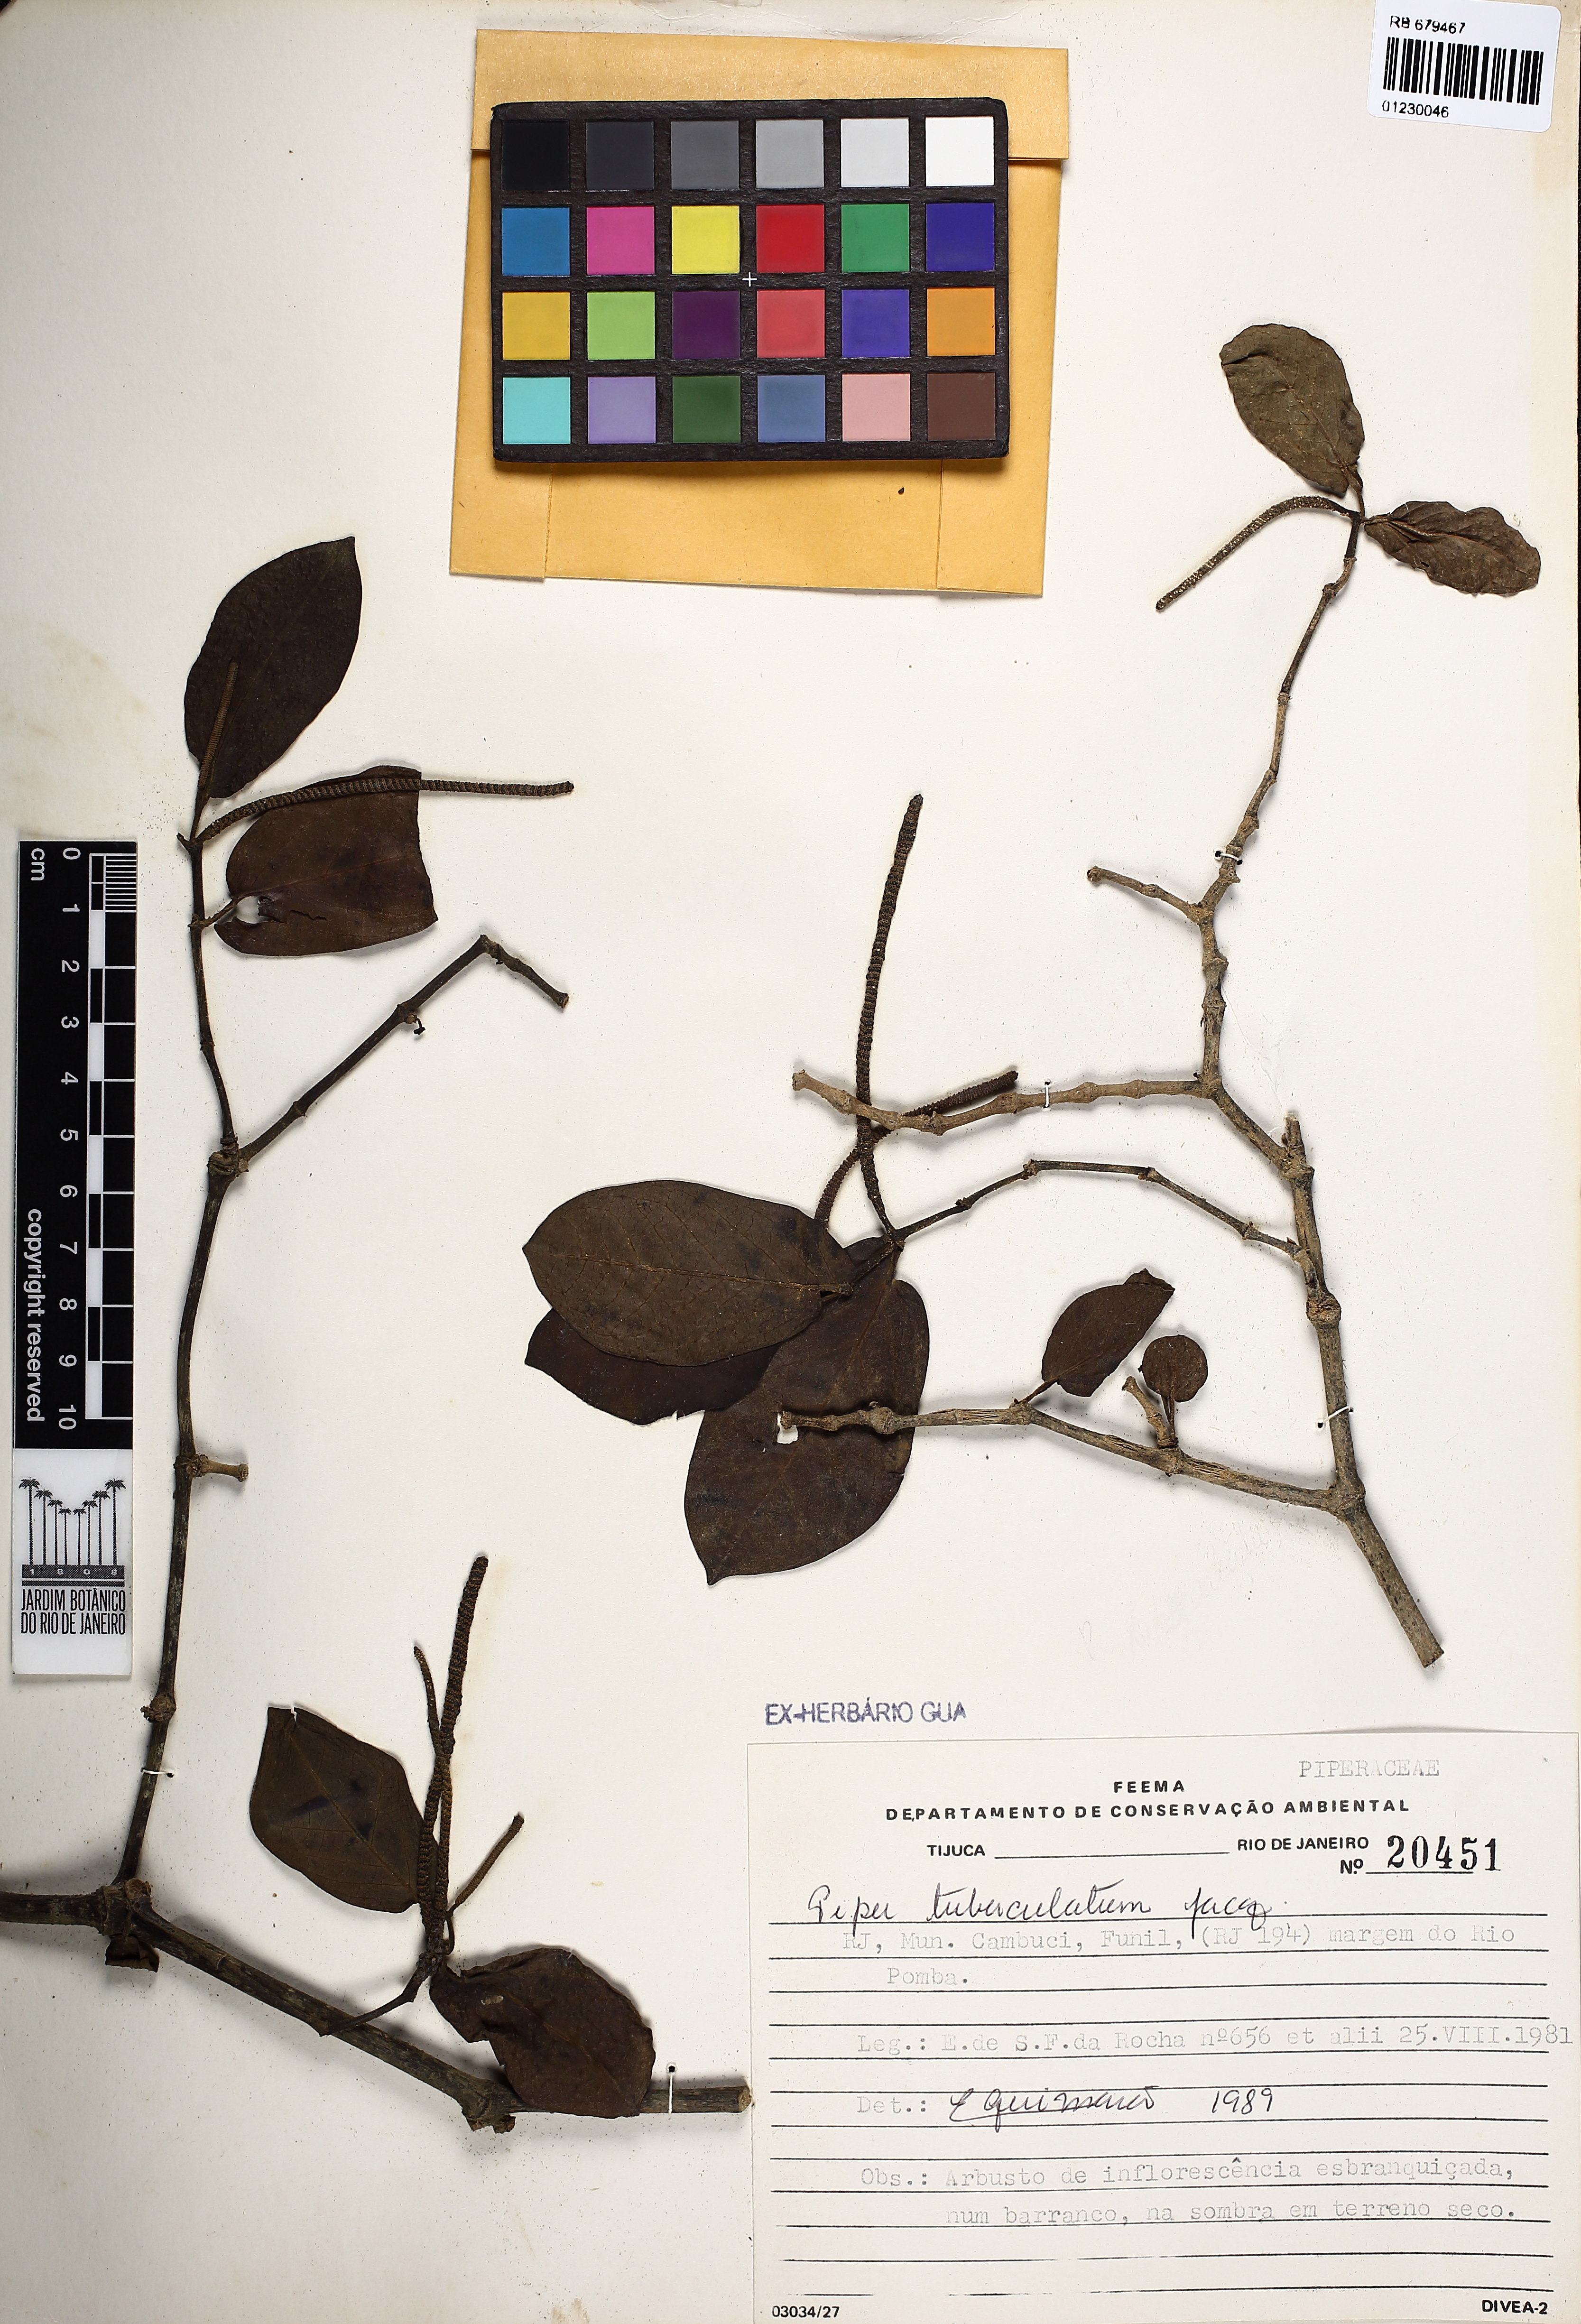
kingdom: Plantae
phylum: Tracheophyta
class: Magnoliopsida
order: Piperales
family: Piperaceae
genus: Piper
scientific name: Piper tuberculatum
